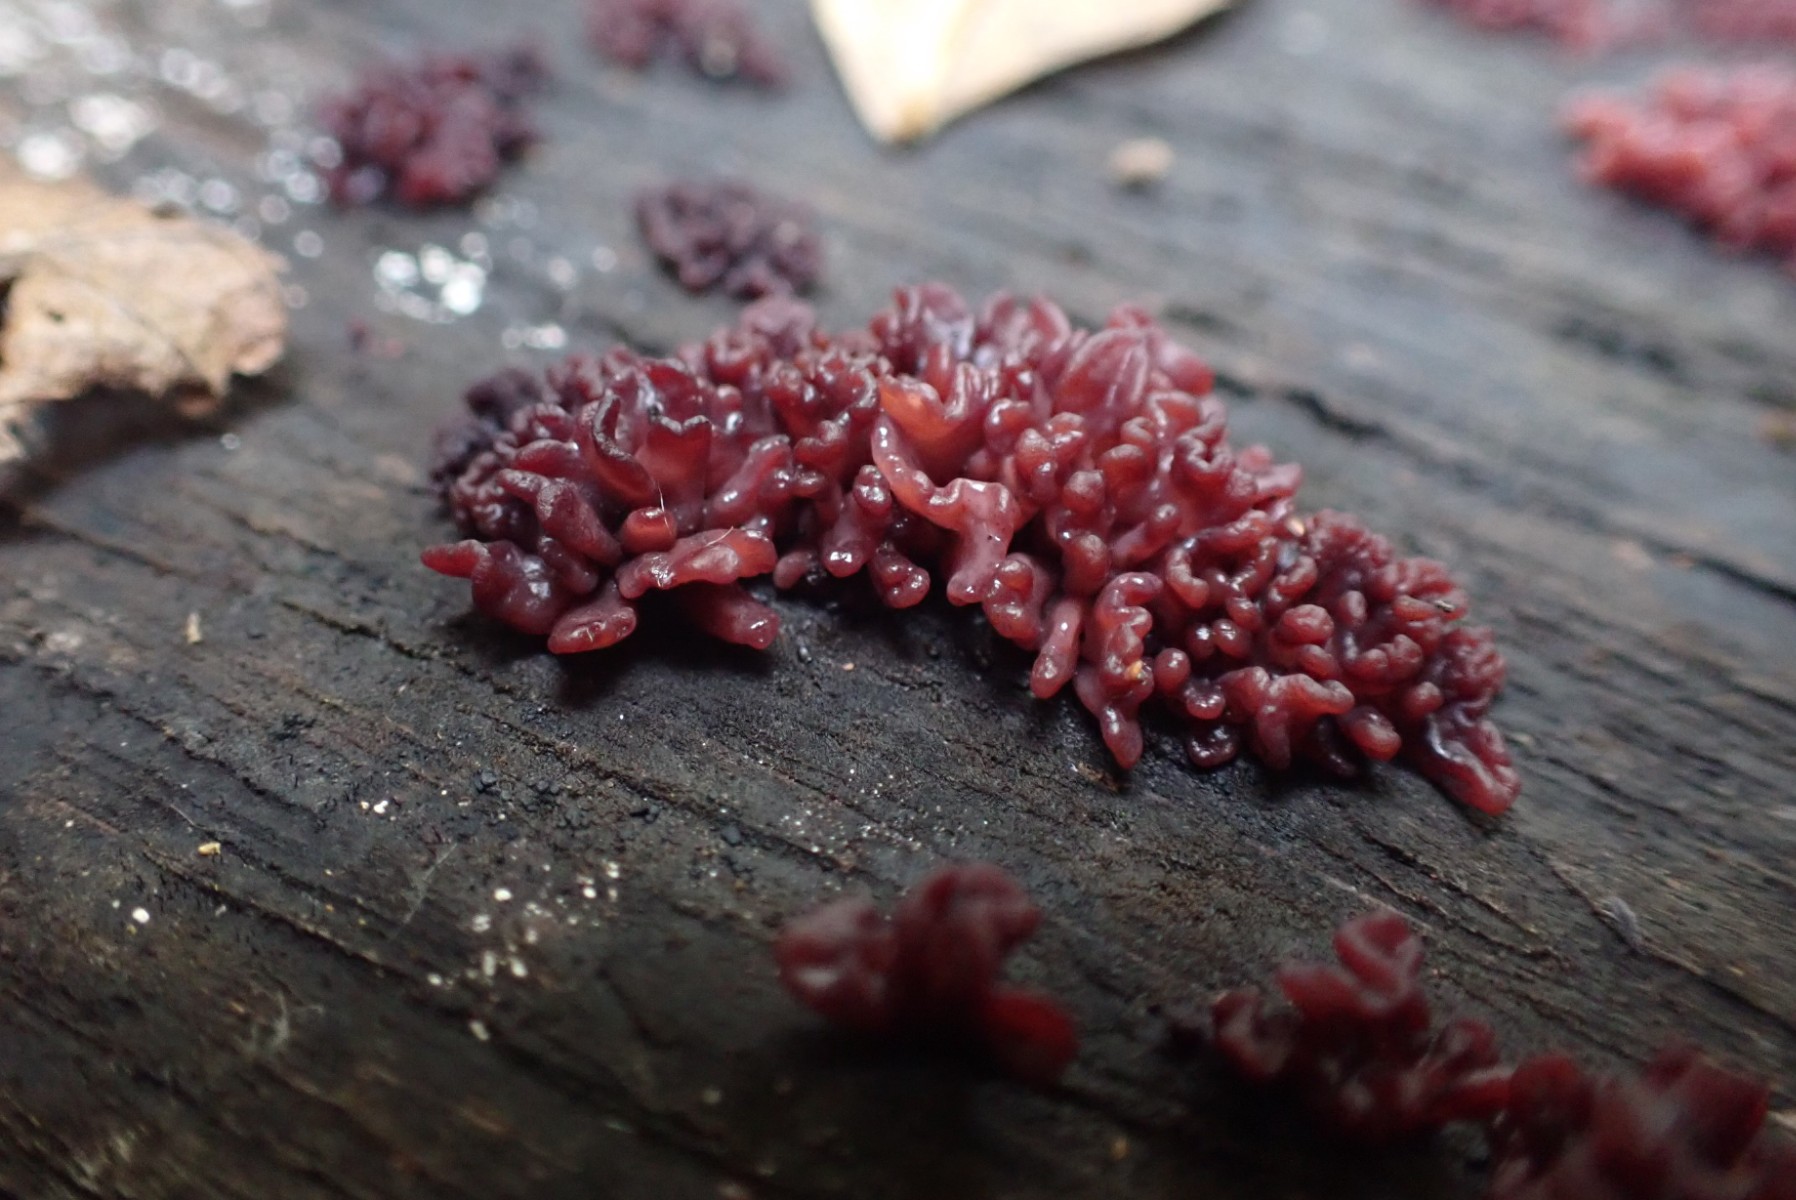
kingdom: Fungi
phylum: Ascomycota
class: Leotiomycetes
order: Helotiales
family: Gelatinodiscaceae
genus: Ascocoryne
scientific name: Ascocoryne sarcoides
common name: rødlilla sejskive
